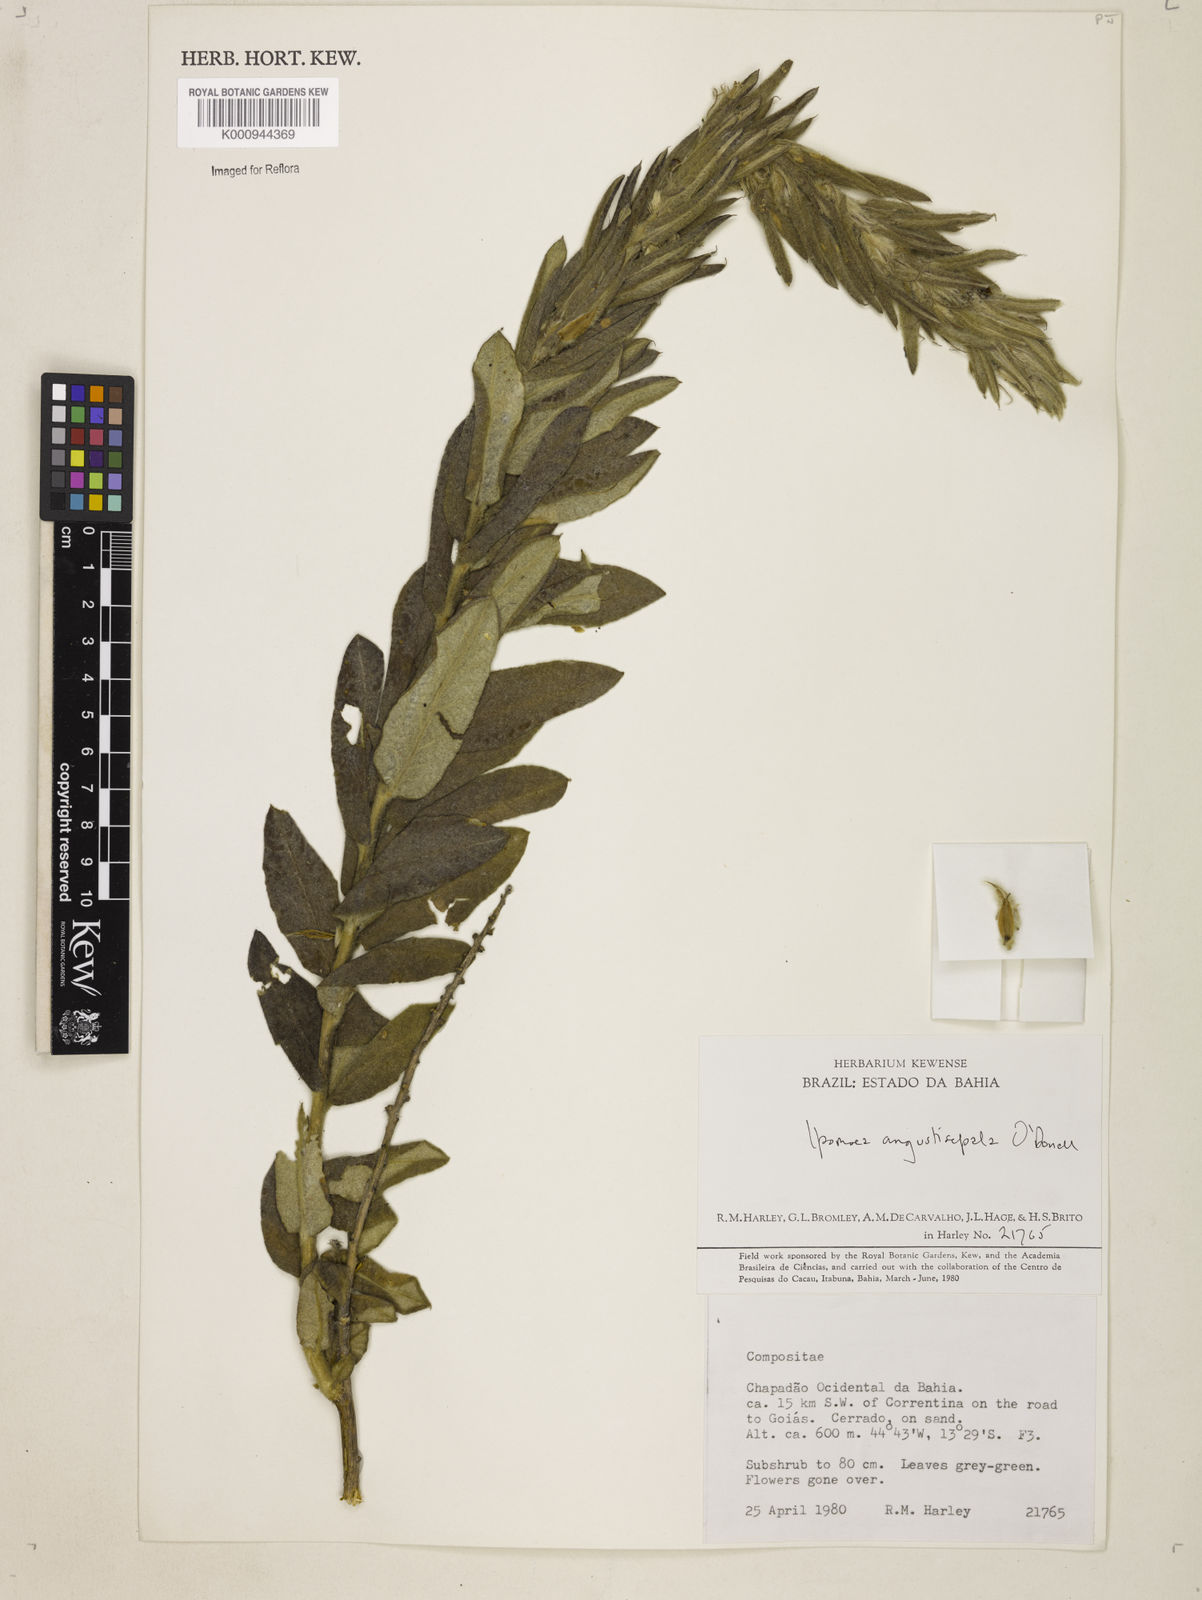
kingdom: Plantae
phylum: Tracheophyta
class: Magnoliopsida
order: Solanales
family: Convolvulaceae
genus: Ipomoea
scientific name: Ipomoea
